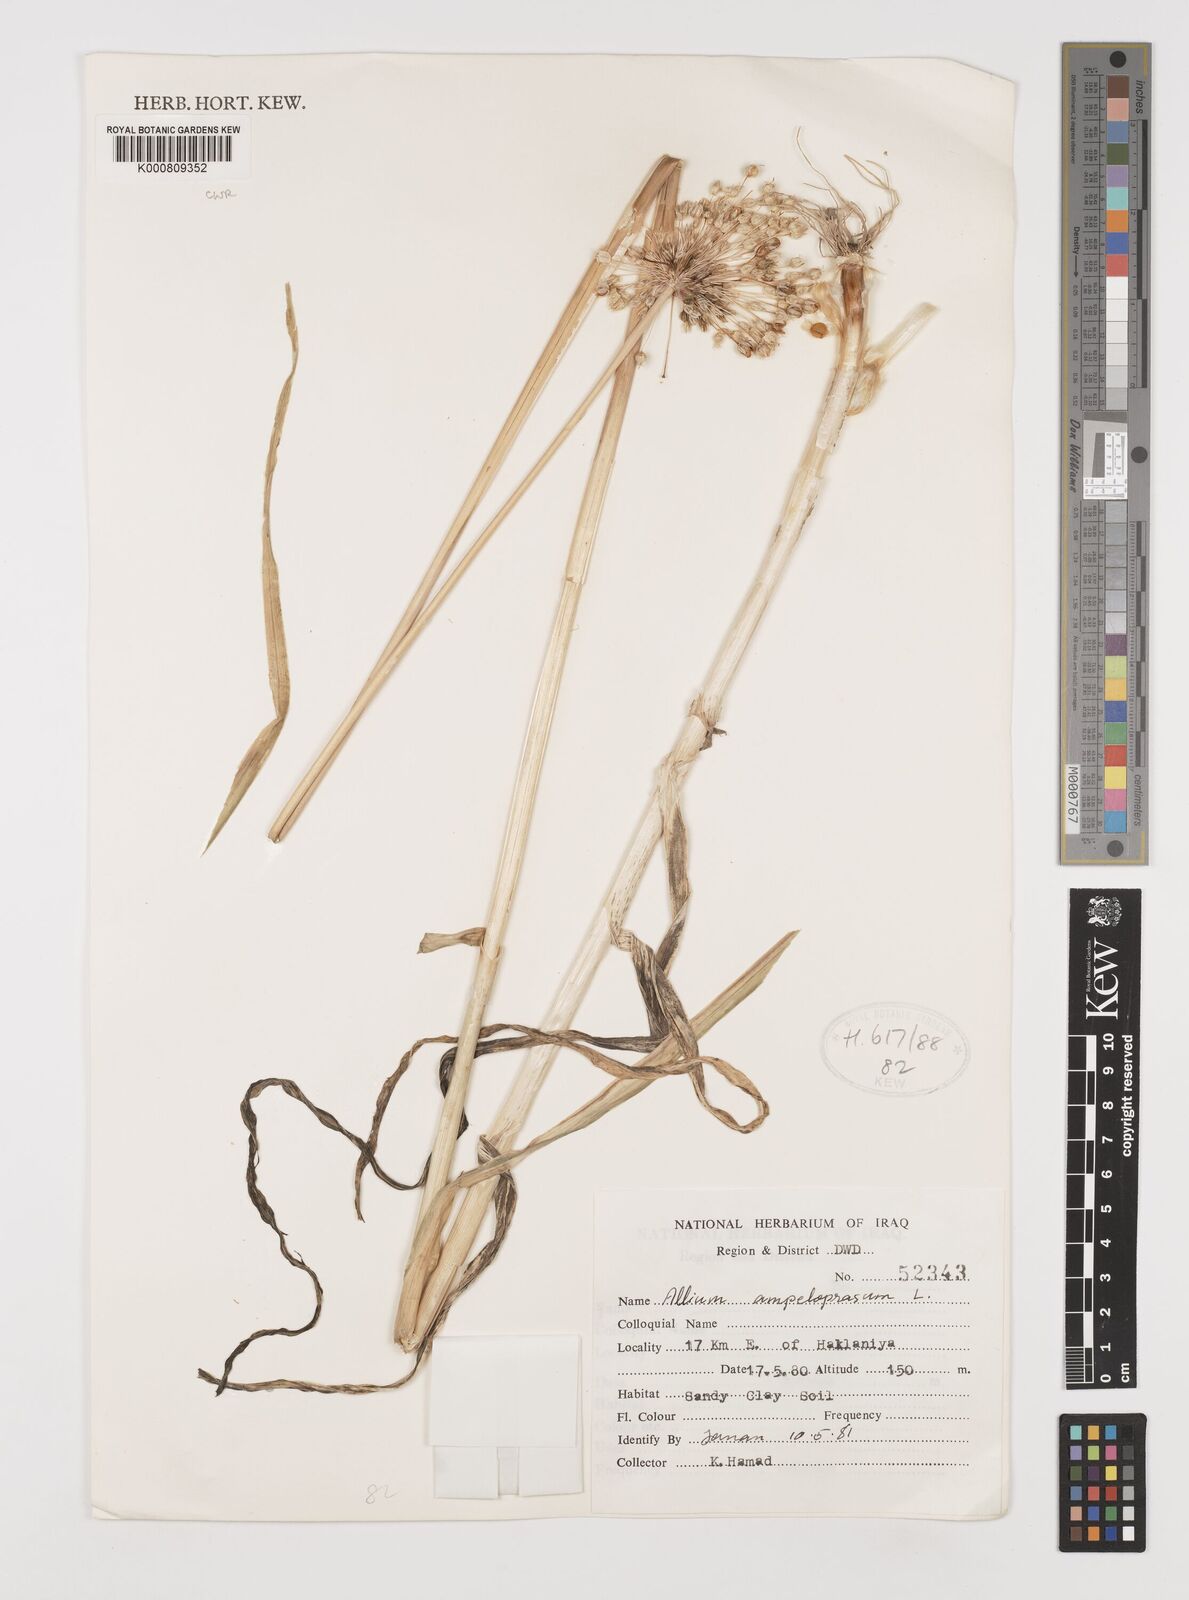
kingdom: Plantae
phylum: Tracheophyta
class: Liliopsida
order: Asparagales
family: Amaryllidaceae
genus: Allium
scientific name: Allium ampeloprasum
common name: Wild leek
